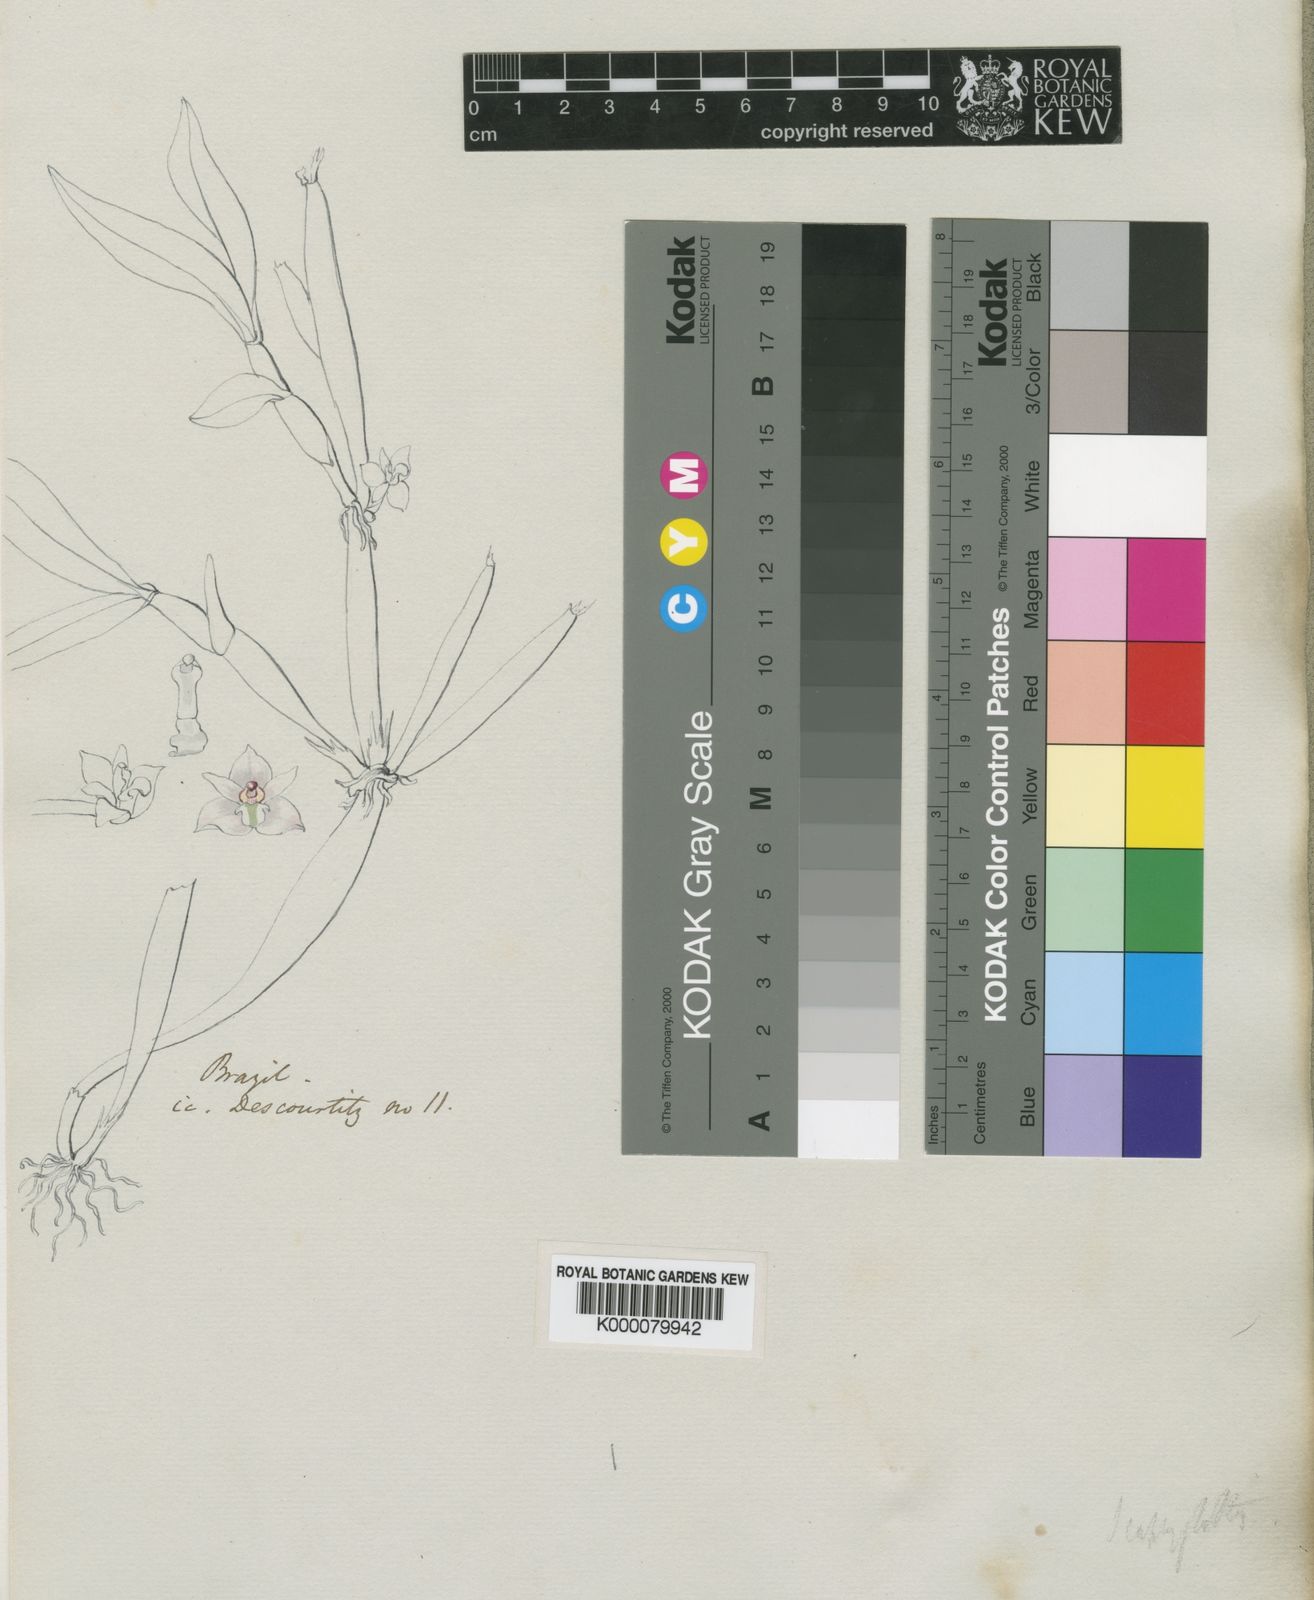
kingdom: Plantae
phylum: Tracheophyta
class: Liliopsida
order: Asparagales
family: Orchidaceae
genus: Scaphyglottis
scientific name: Scaphyglottis
